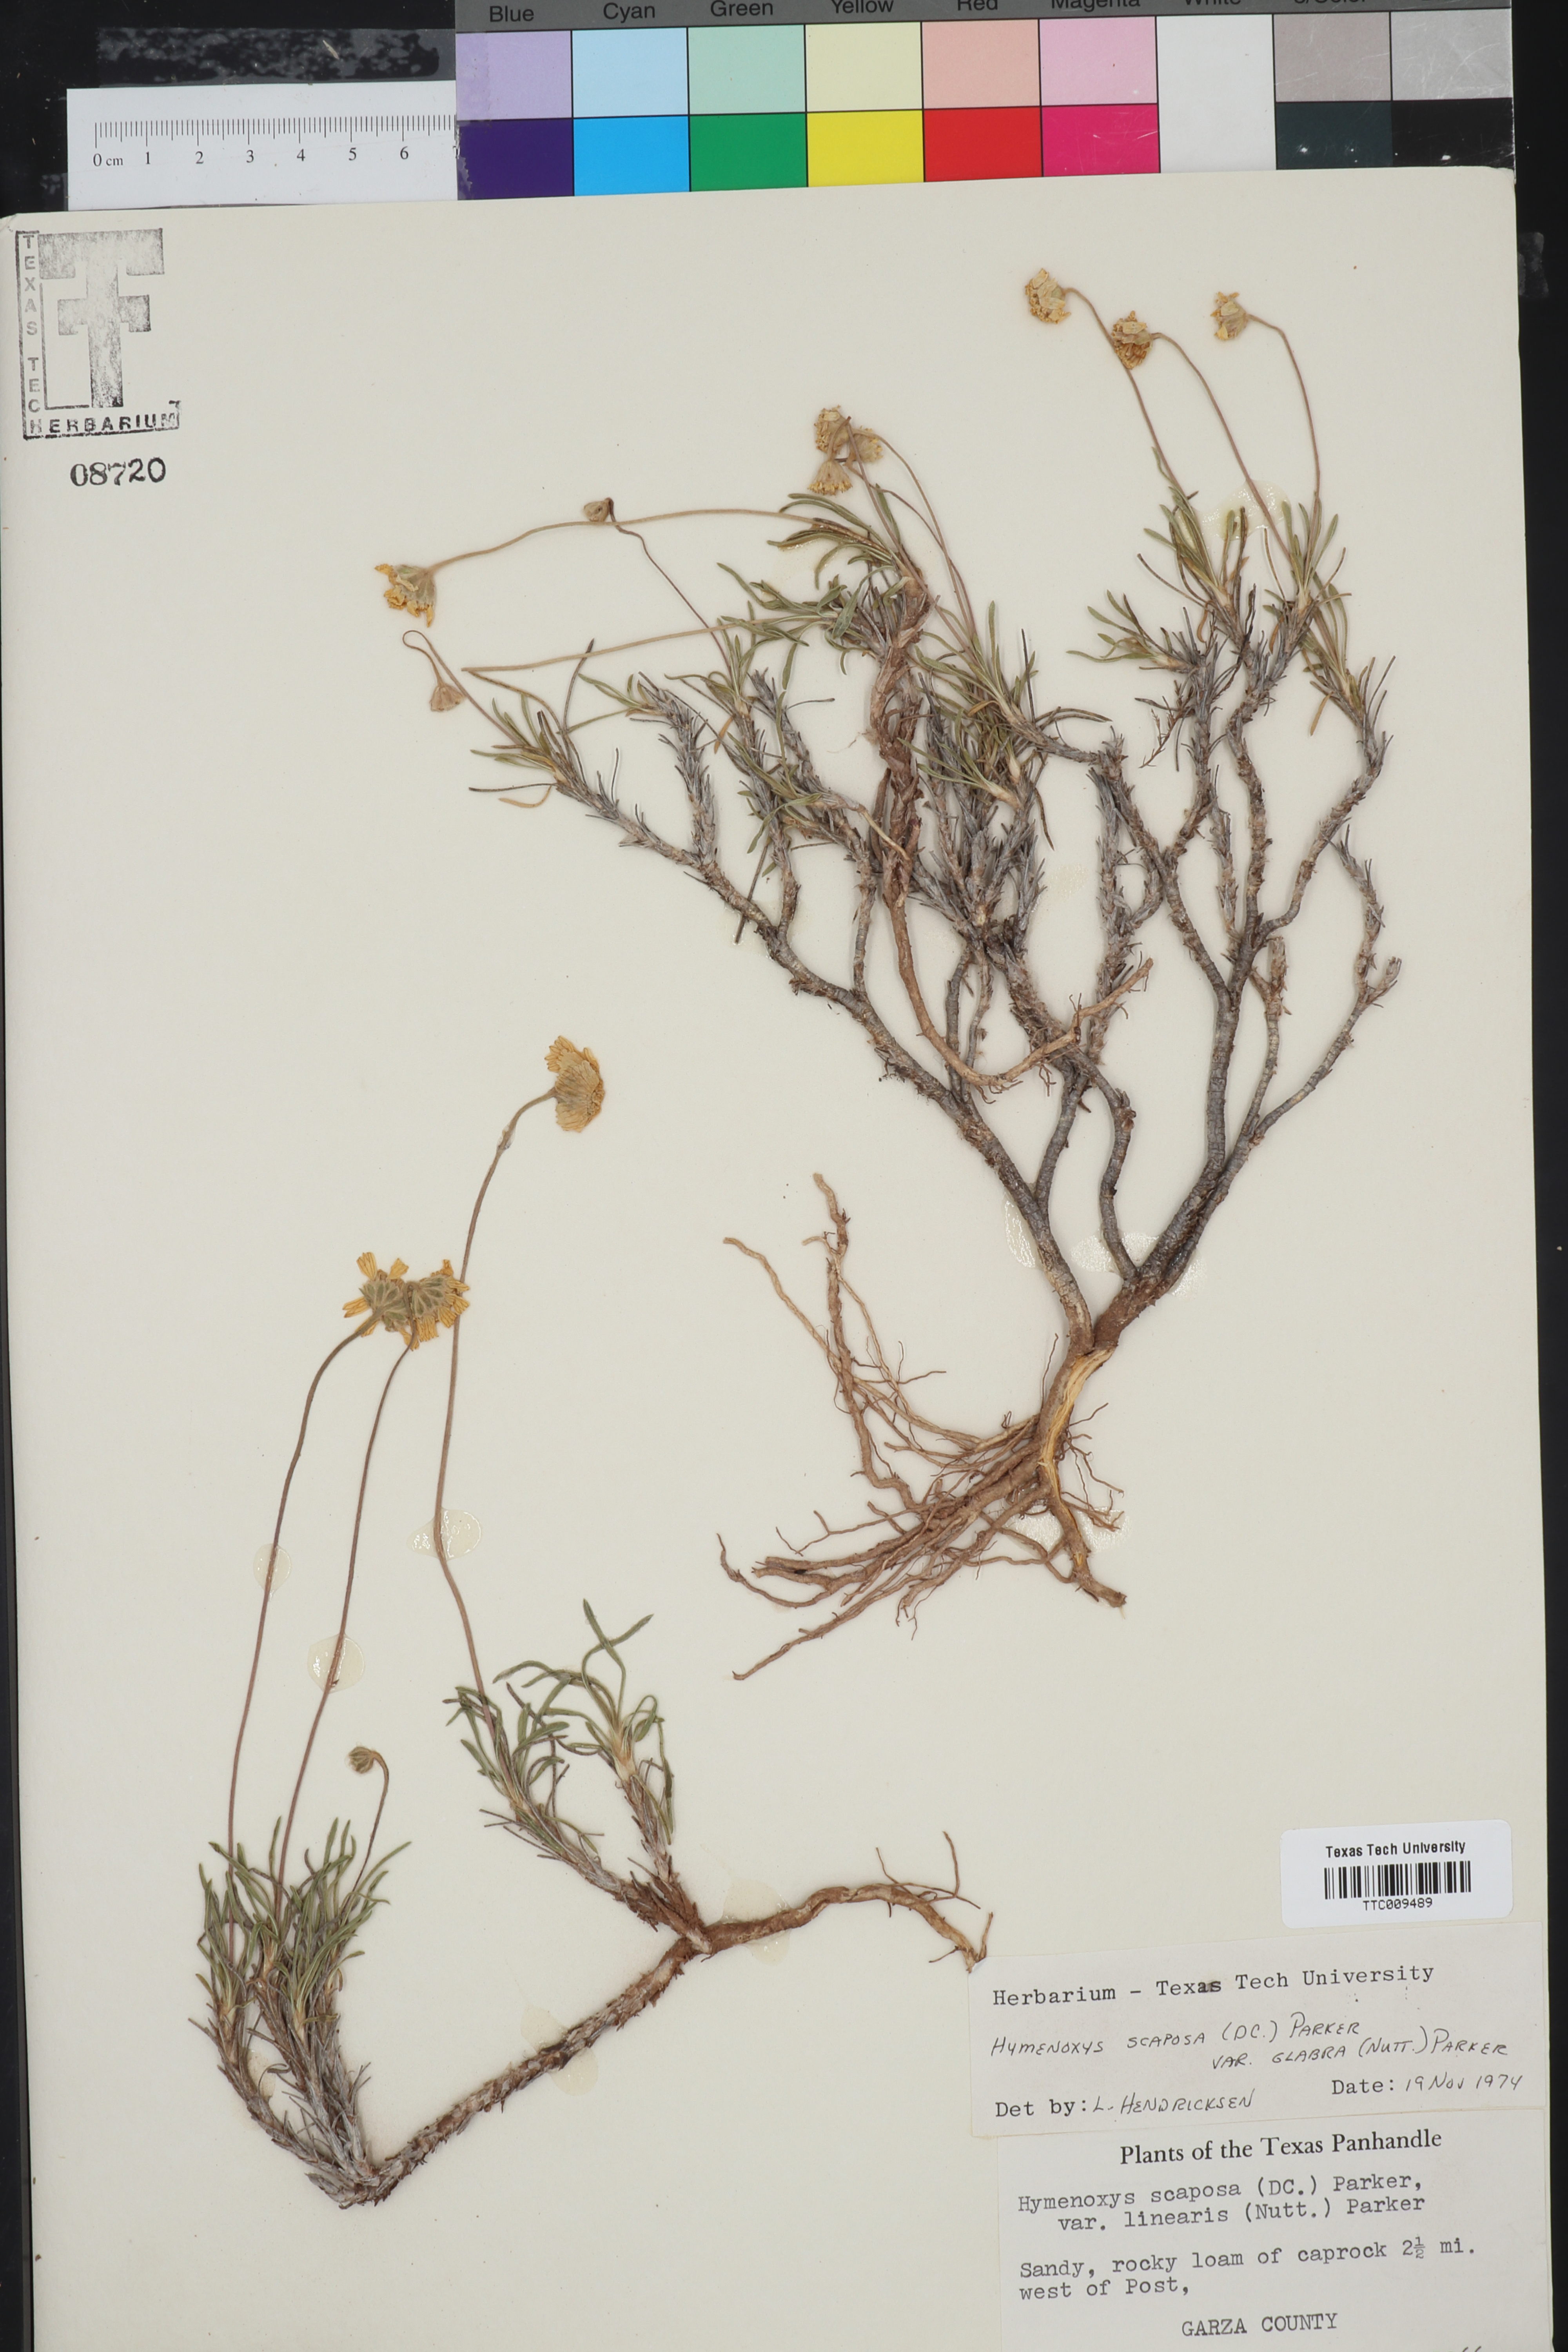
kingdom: Plantae
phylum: Tracheophyta
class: Magnoliopsida
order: Asterales
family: Asteraceae
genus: Tetraneuris
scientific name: Tetraneuris scaposa
